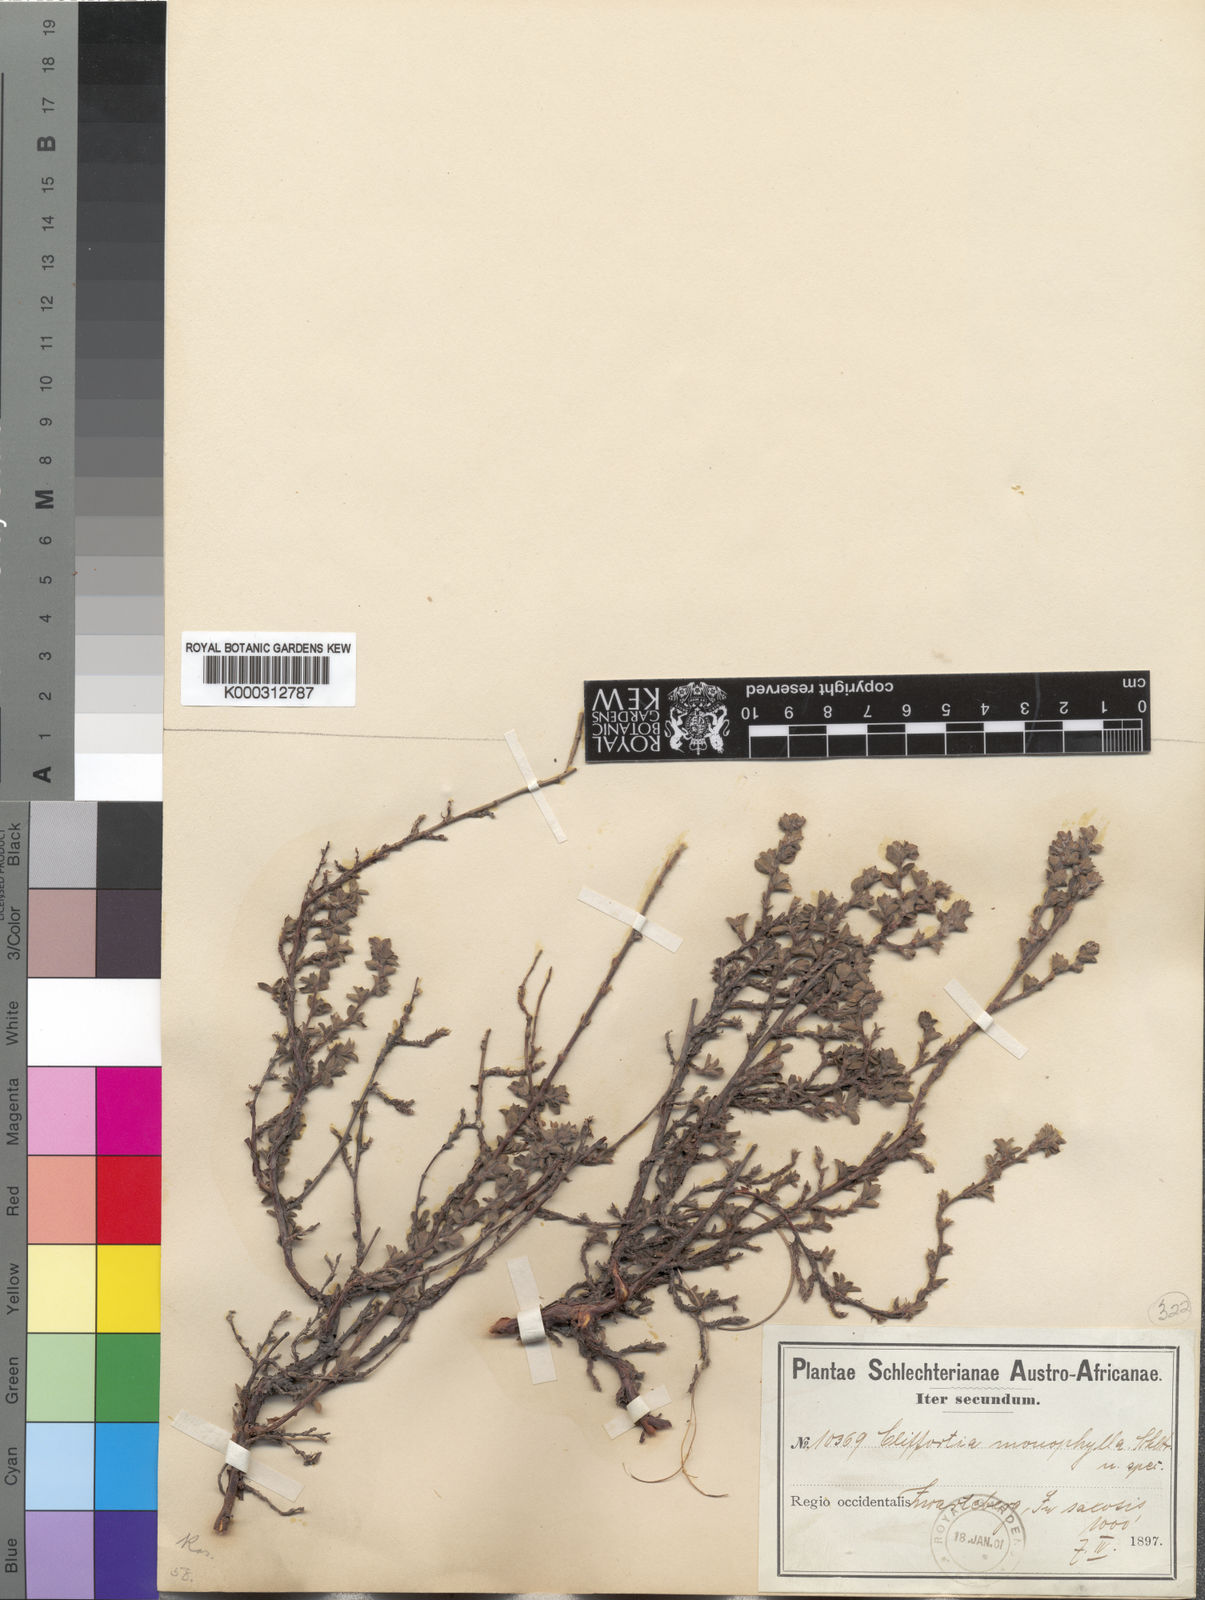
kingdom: Plantae
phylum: Tracheophyta
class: Magnoliopsida
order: Rosales
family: Rosaceae
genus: Cliffortia
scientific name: Cliffortia
